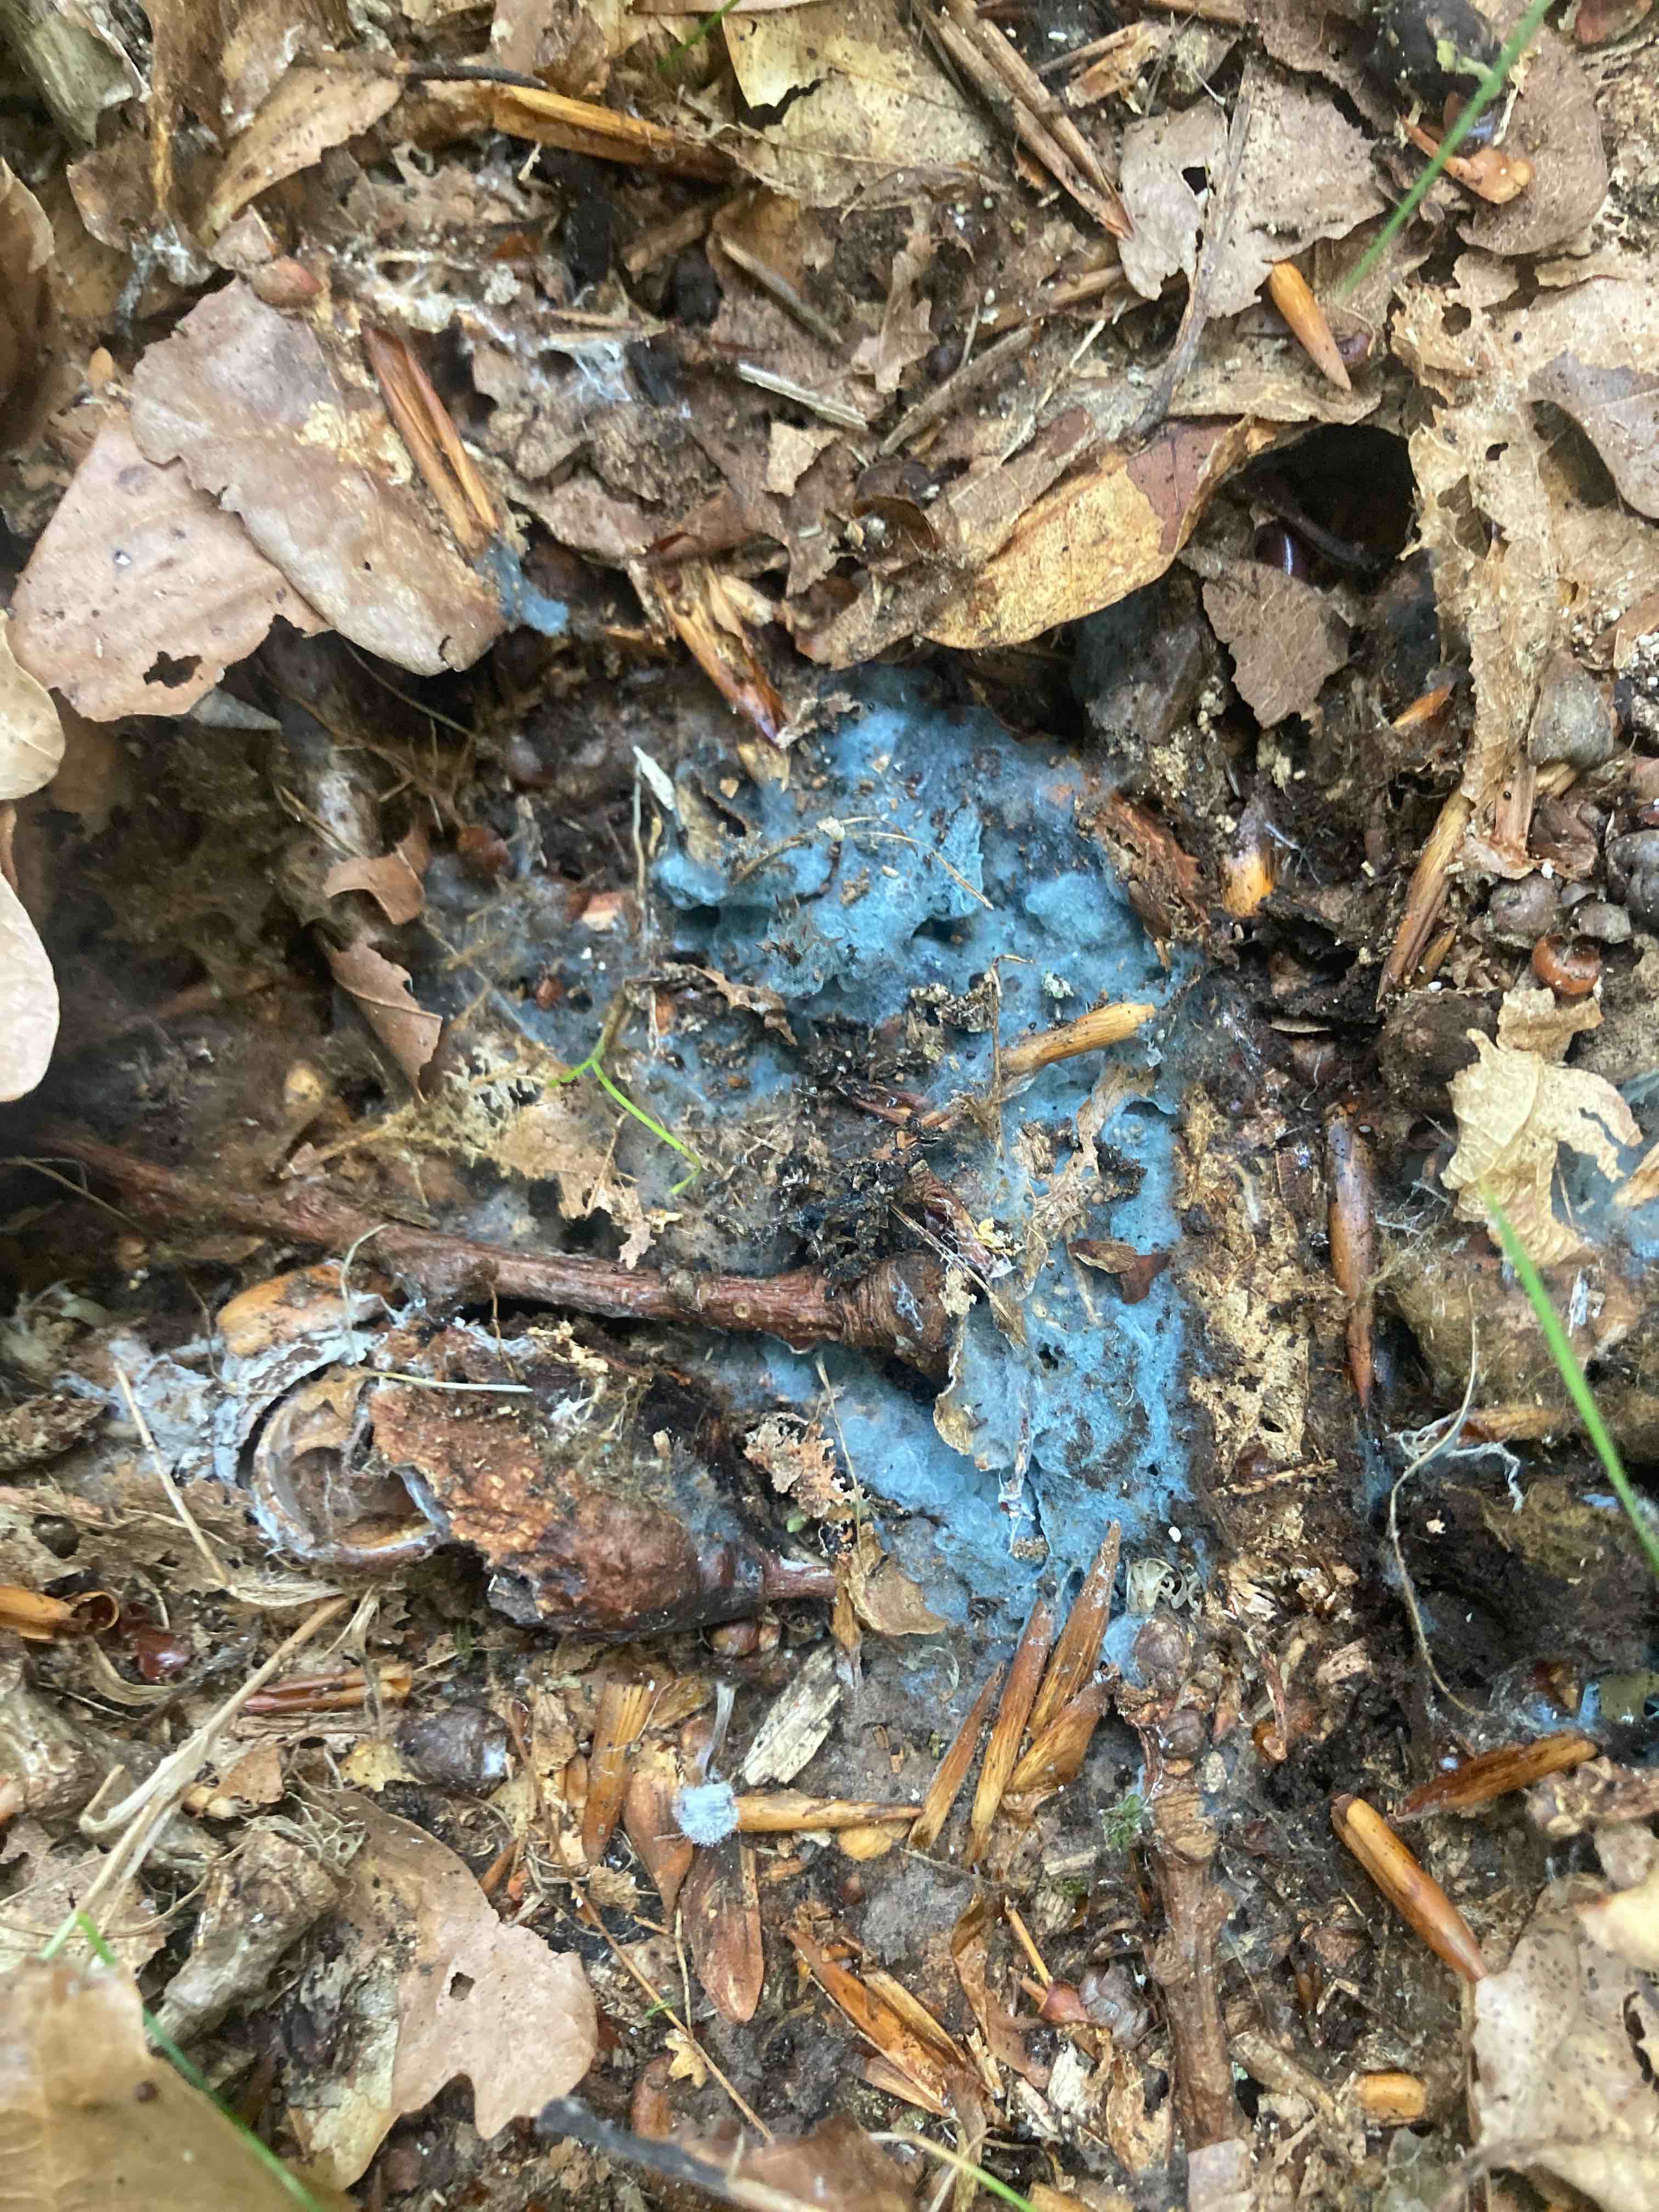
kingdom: Fungi
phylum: Basidiomycota
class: Agaricomycetes
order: Atheliales
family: Atheliaceae
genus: Byssocorticium
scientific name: Byssocorticium atrovirens
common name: blå førnehinde
